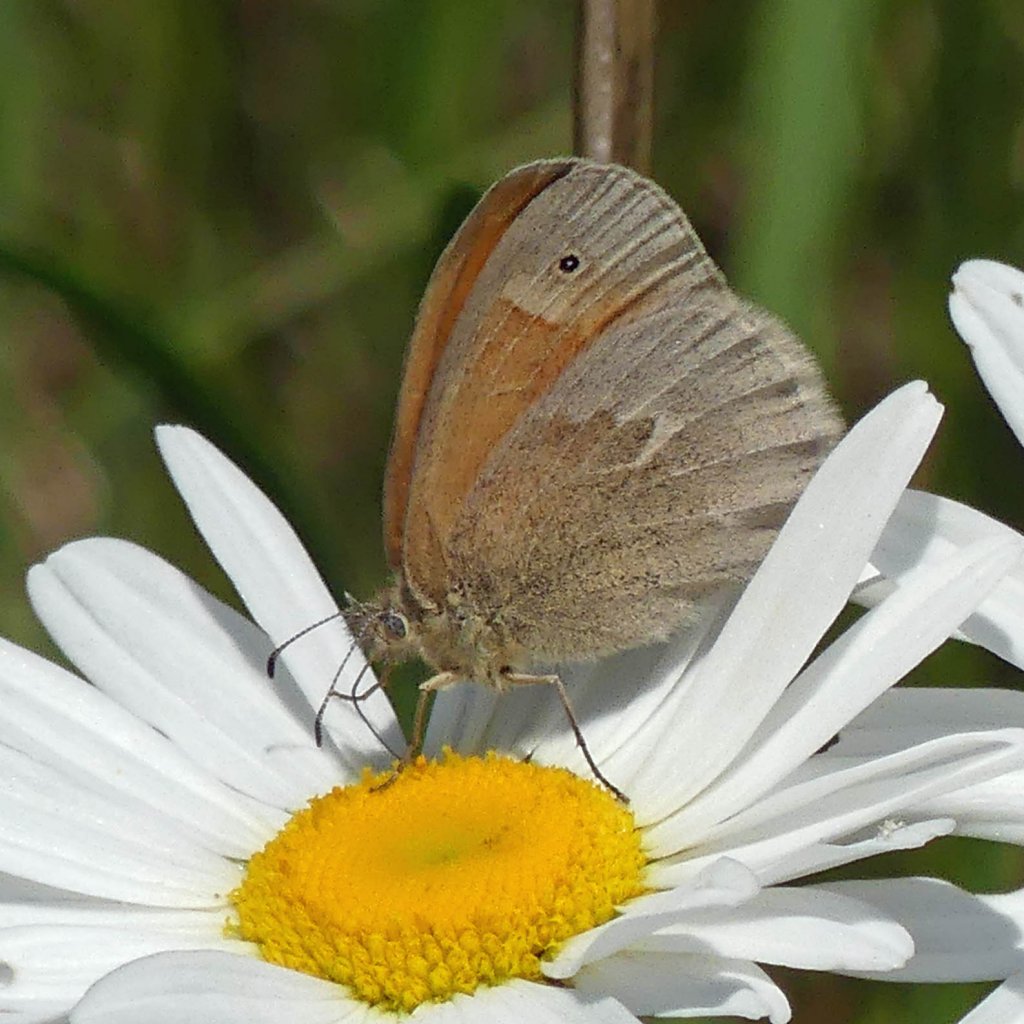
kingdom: Animalia
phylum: Arthropoda
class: Insecta
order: Lepidoptera
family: Nymphalidae
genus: Coenonympha
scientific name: Coenonympha tullia
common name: Large Heath
